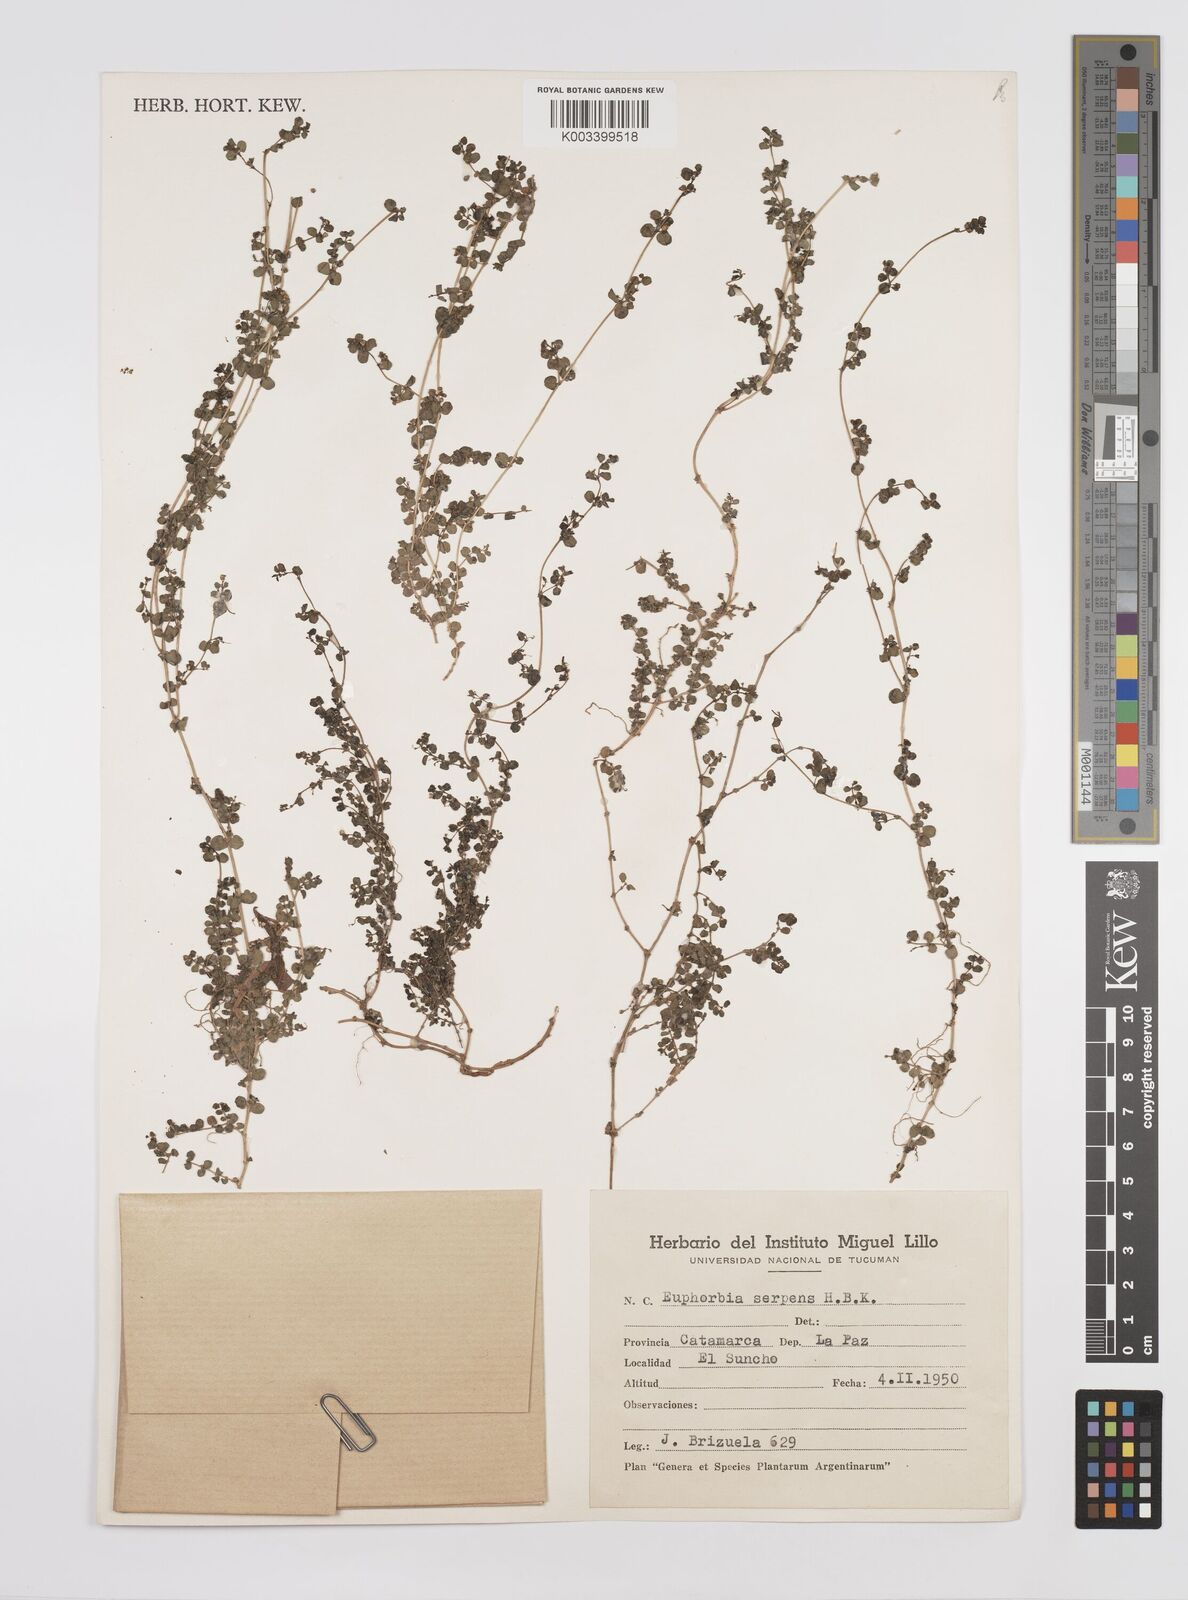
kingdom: Plantae
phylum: Tracheophyta
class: Magnoliopsida
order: Malpighiales
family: Euphorbiaceae
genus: Euphorbia
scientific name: Euphorbia
